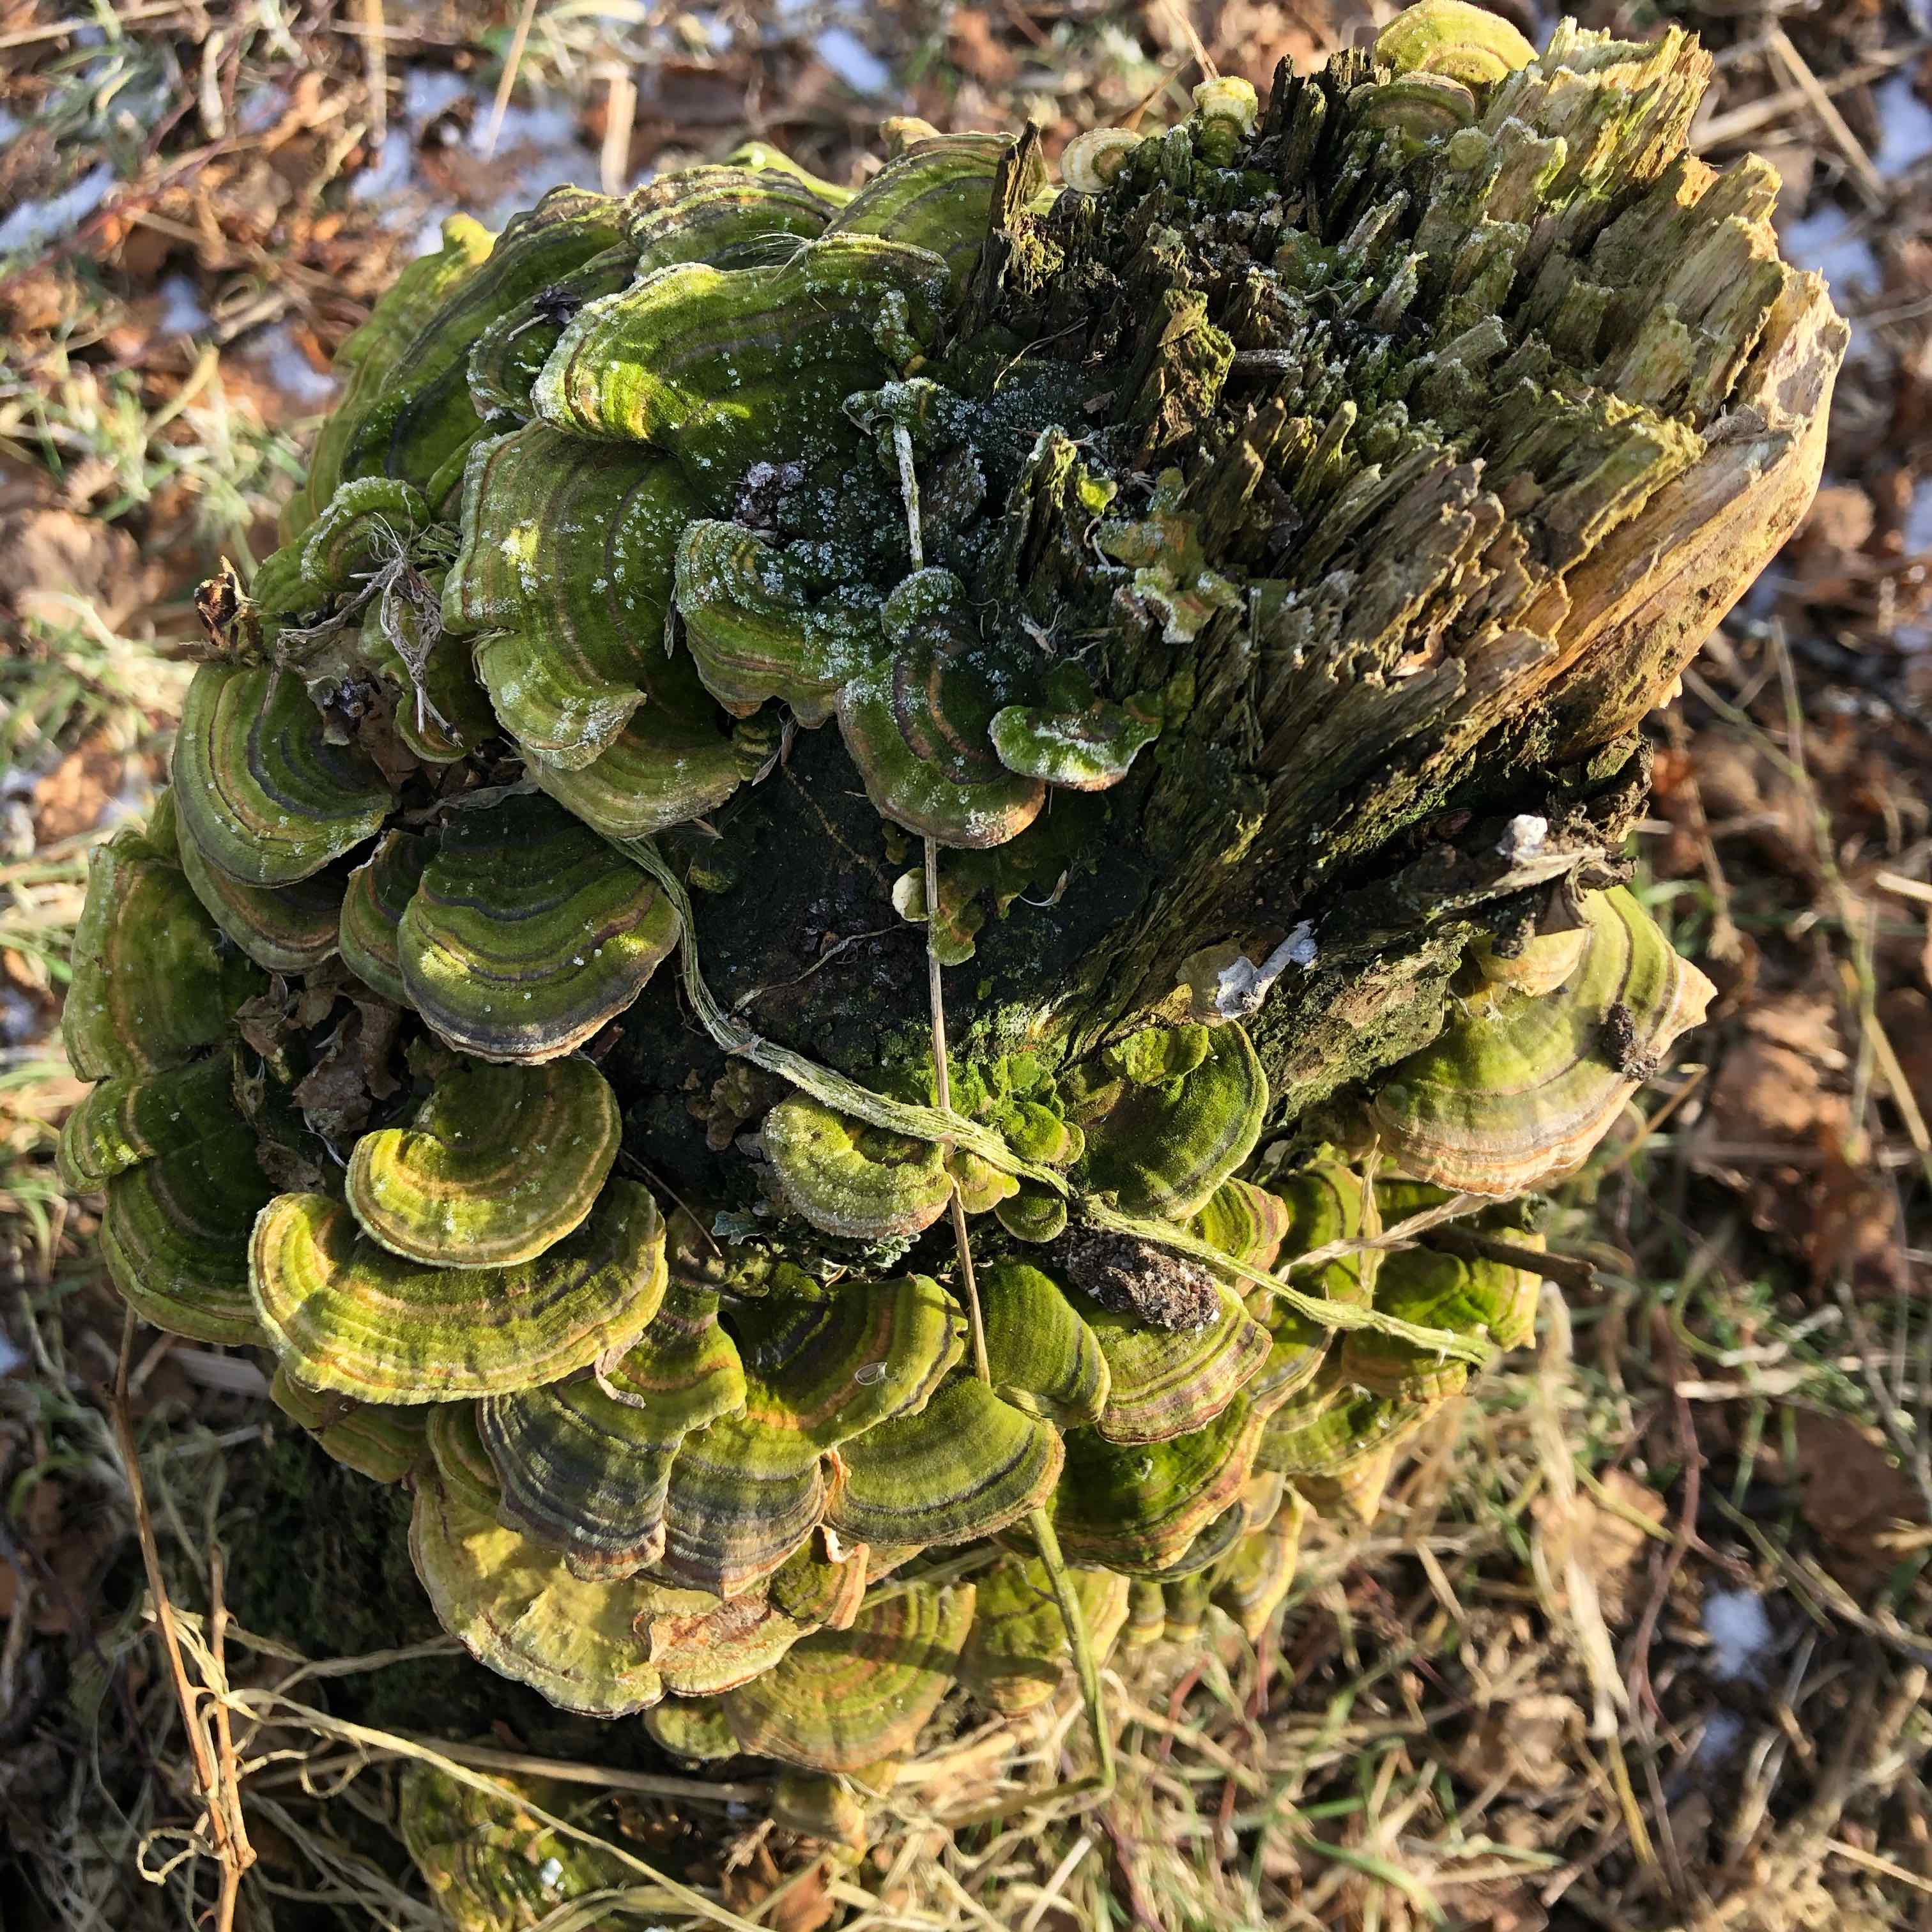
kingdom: Fungi
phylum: Basidiomycota
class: Agaricomycetes
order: Polyporales
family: Polyporaceae
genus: Trametes
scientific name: Trametes versicolor
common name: broget læderporesvamp
